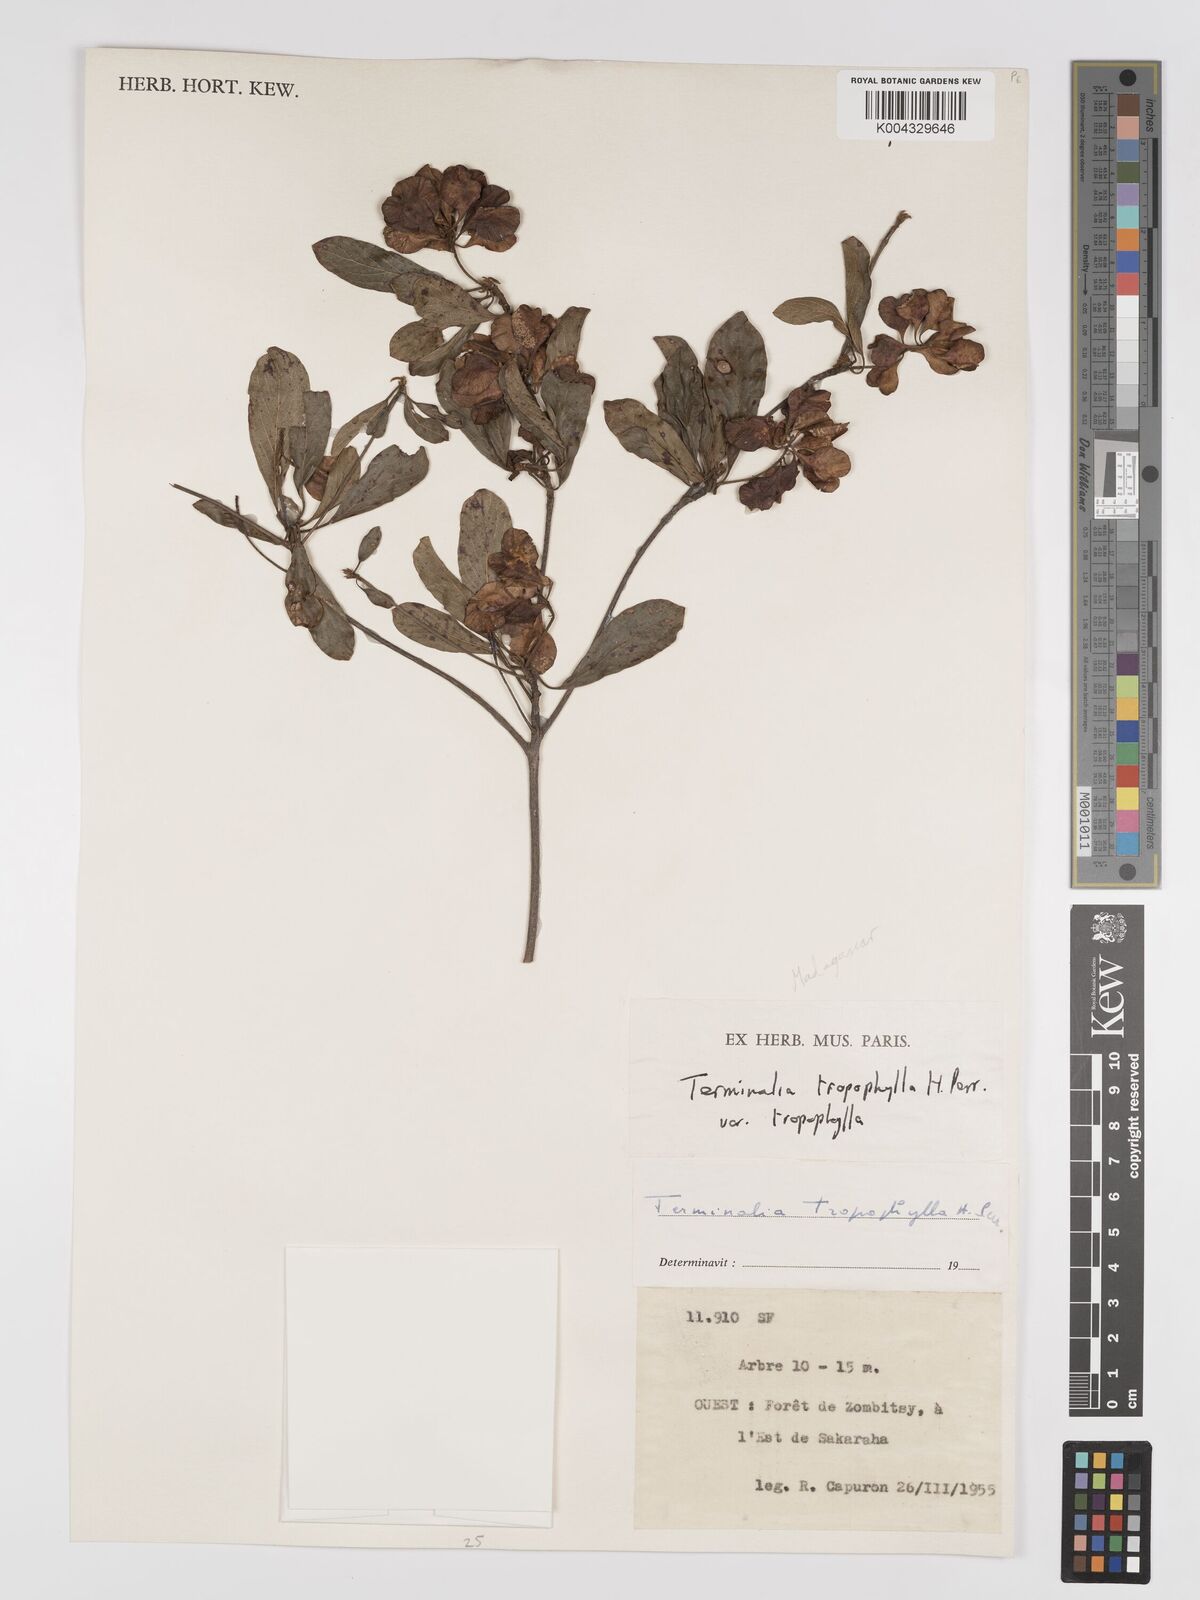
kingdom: Plantae
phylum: Tracheophyta
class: Magnoliopsida
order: Myrtales
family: Combretaceae
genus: Terminalia
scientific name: Terminalia tropophylla
